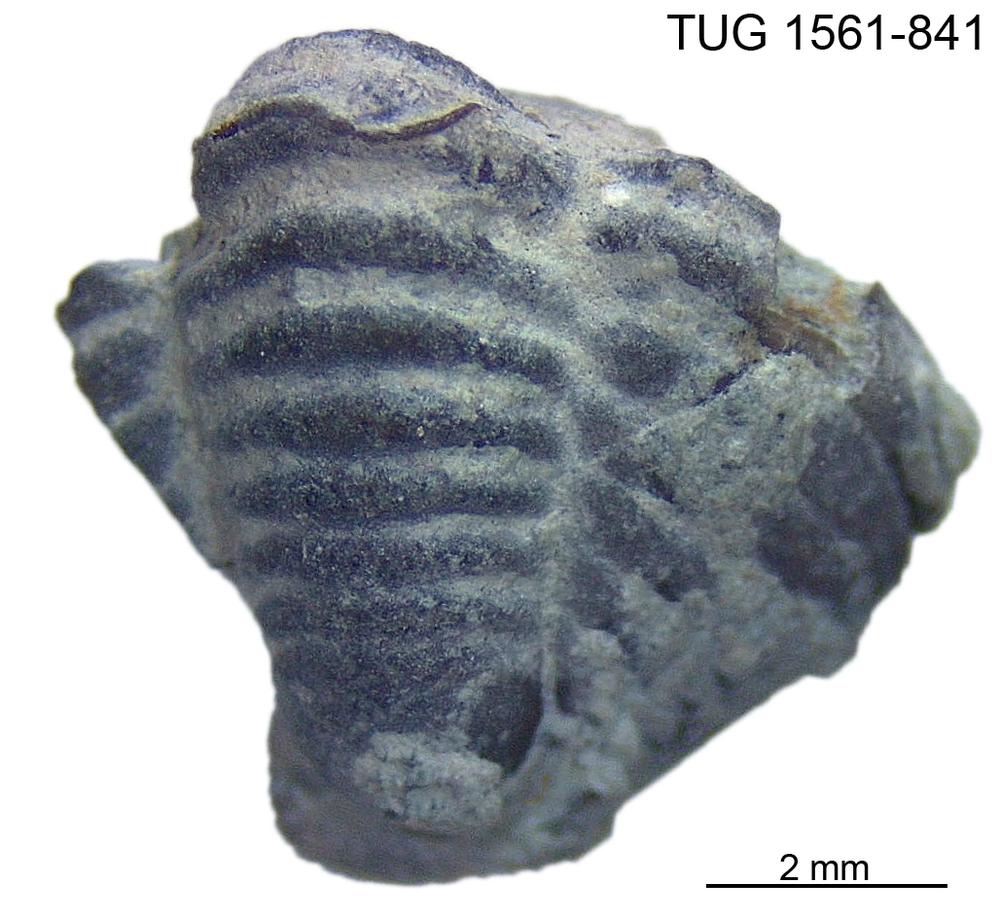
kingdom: Animalia
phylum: Arthropoda
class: Trilobita
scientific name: Trilobita
